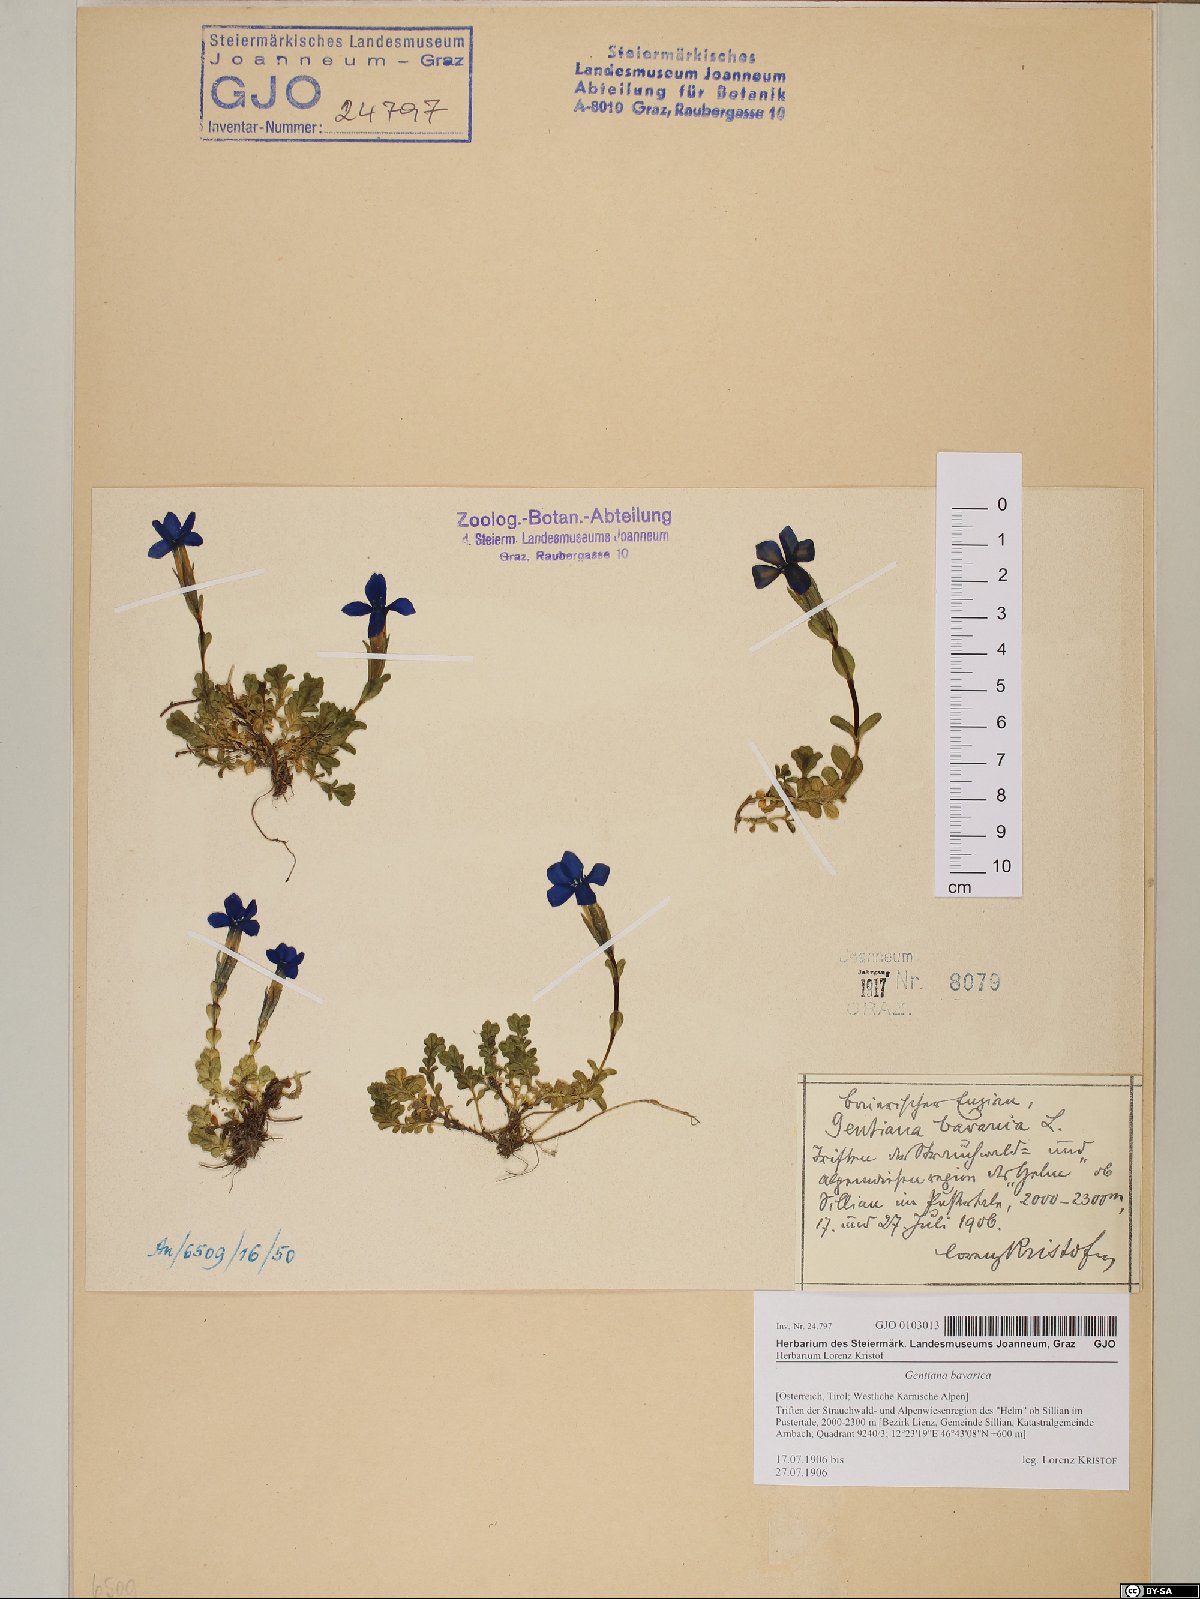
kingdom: Plantae
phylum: Tracheophyta
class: Magnoliopsida
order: Gentianales
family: Gentianaceae
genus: Gentiana
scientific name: Gentiana bavarica
